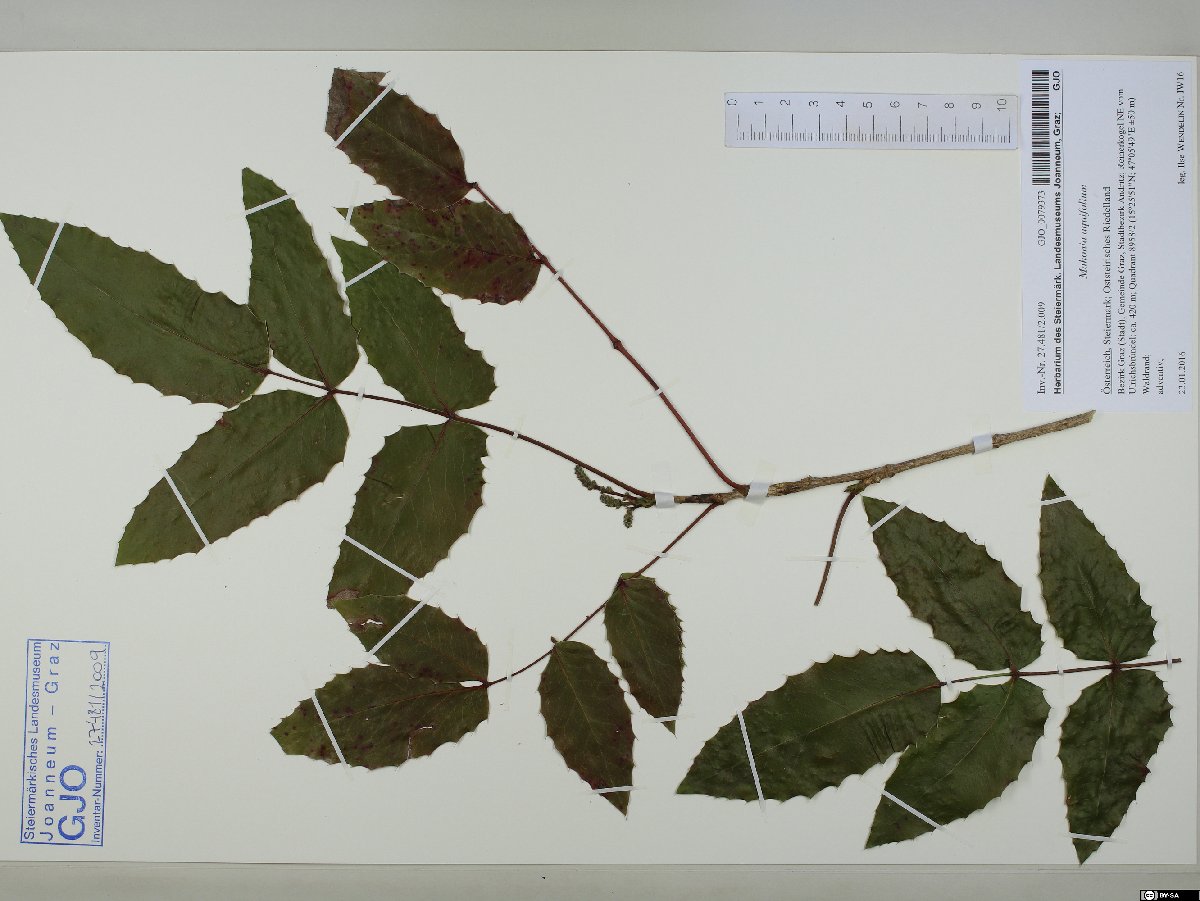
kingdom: Plantae
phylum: Tracheophyta
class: Magnoliopsida
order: Ranunculales
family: Berberidaceae
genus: Mahonia
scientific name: Mahonia aquifolium
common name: Oregon-grape
